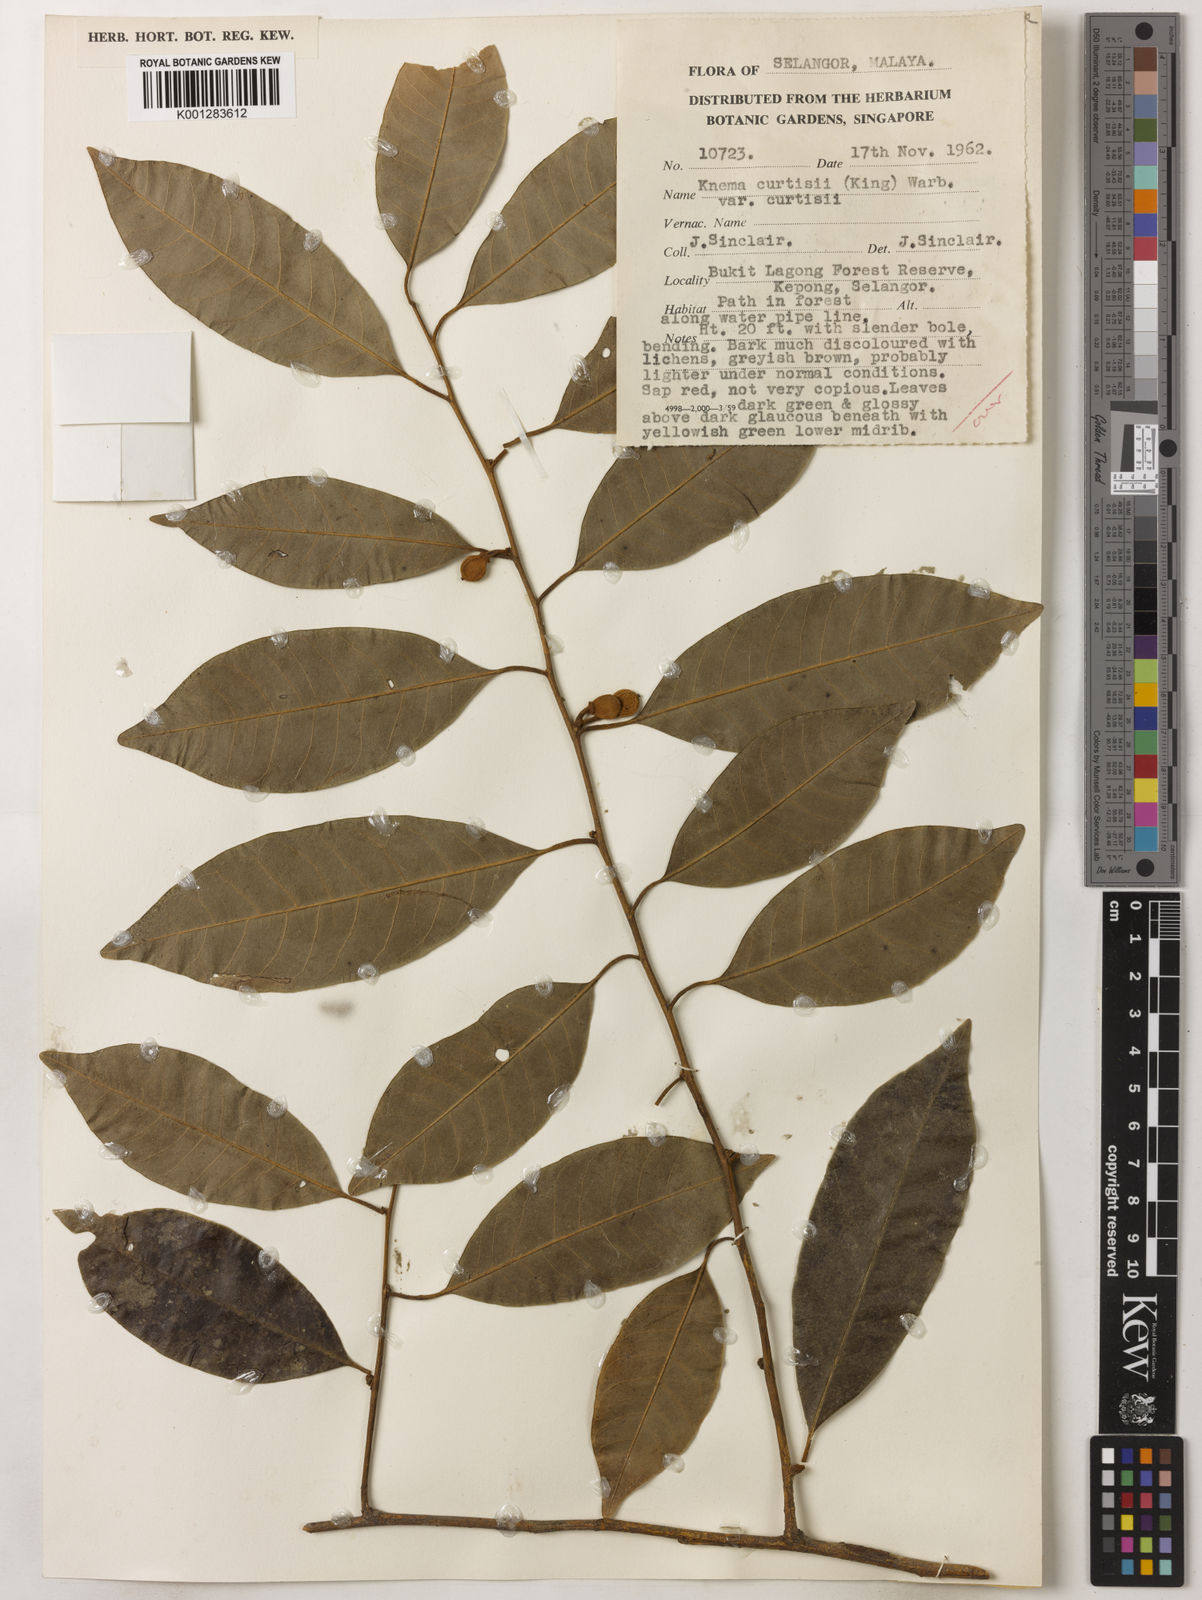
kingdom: Plantae
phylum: Tracheophyta
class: Magnoliopsida
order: Magnoliales
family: Myristicaceae
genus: Knema
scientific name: Knema curtisii
